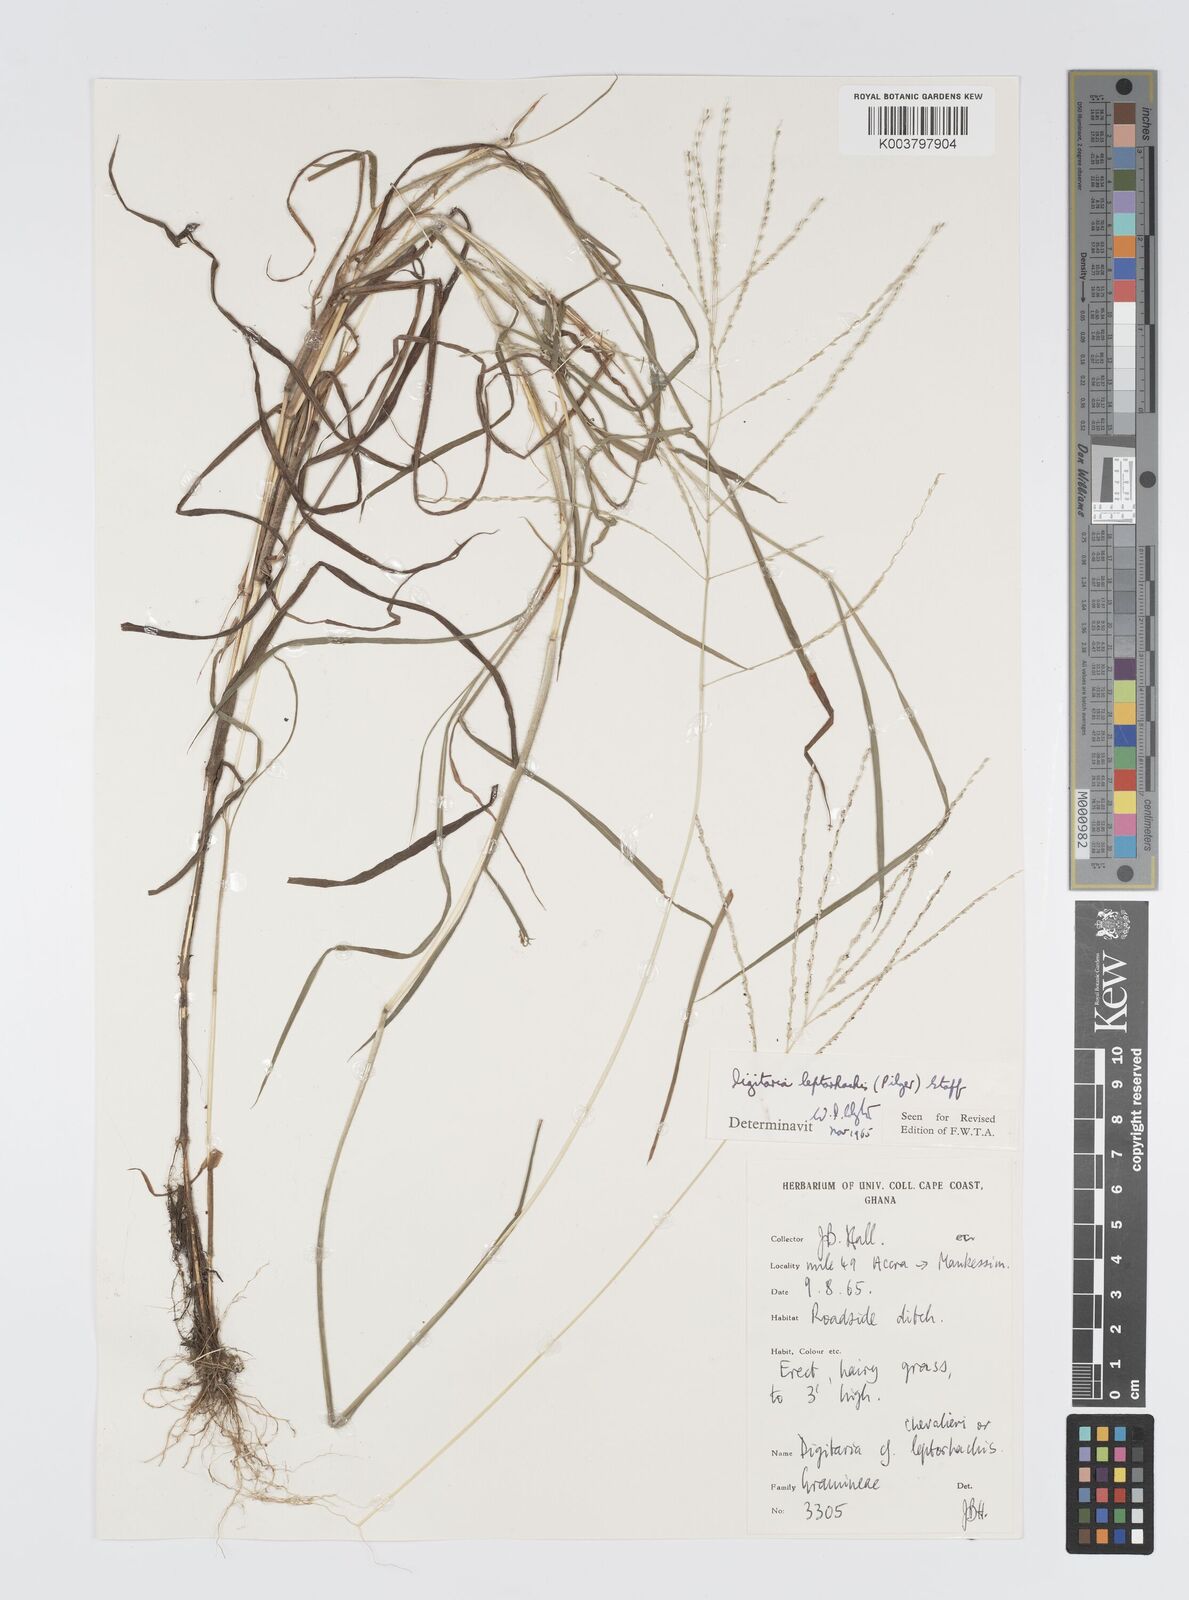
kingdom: Plantae
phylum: Tracheophyta
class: Liliopsida
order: Poales
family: Poaceae
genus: Digitaria
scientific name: Digitaria leptorhachis
